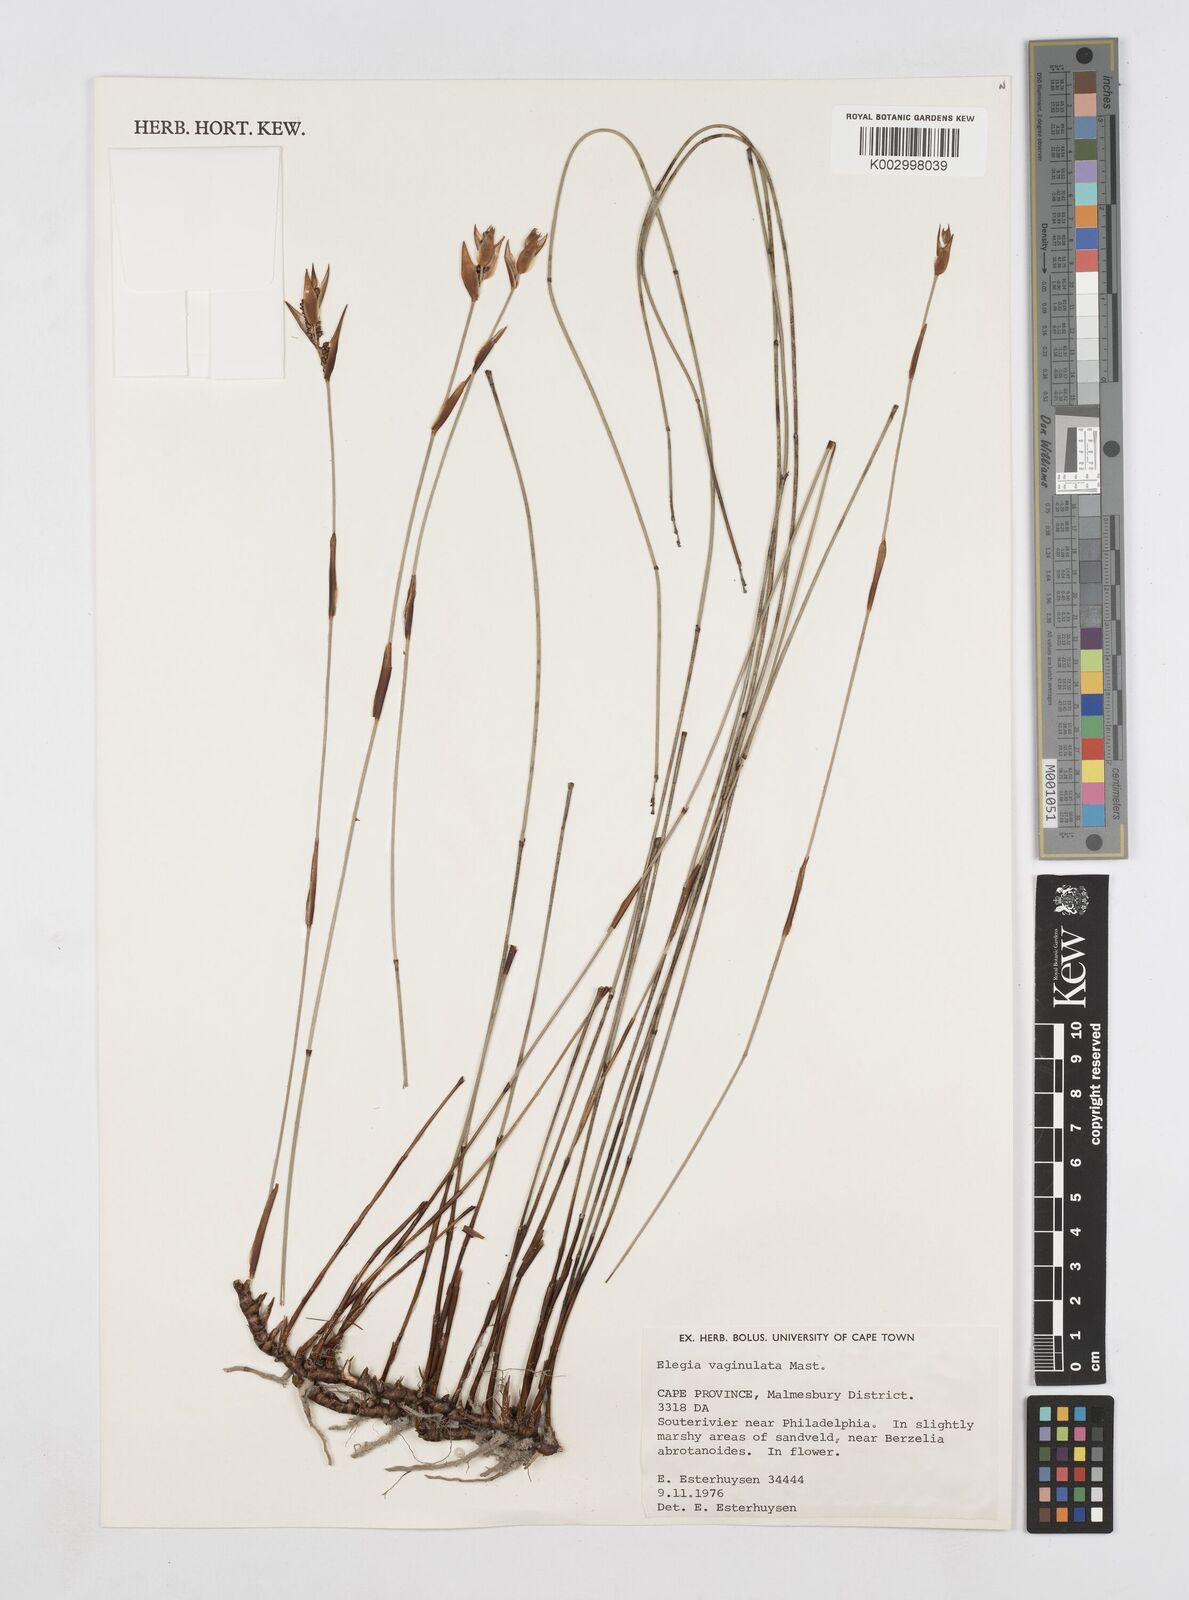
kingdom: Plantae
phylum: Tracheophyta
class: Liliopsida
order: Poales
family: Restionaceae
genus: Elegia
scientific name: Elegia vaginulata
